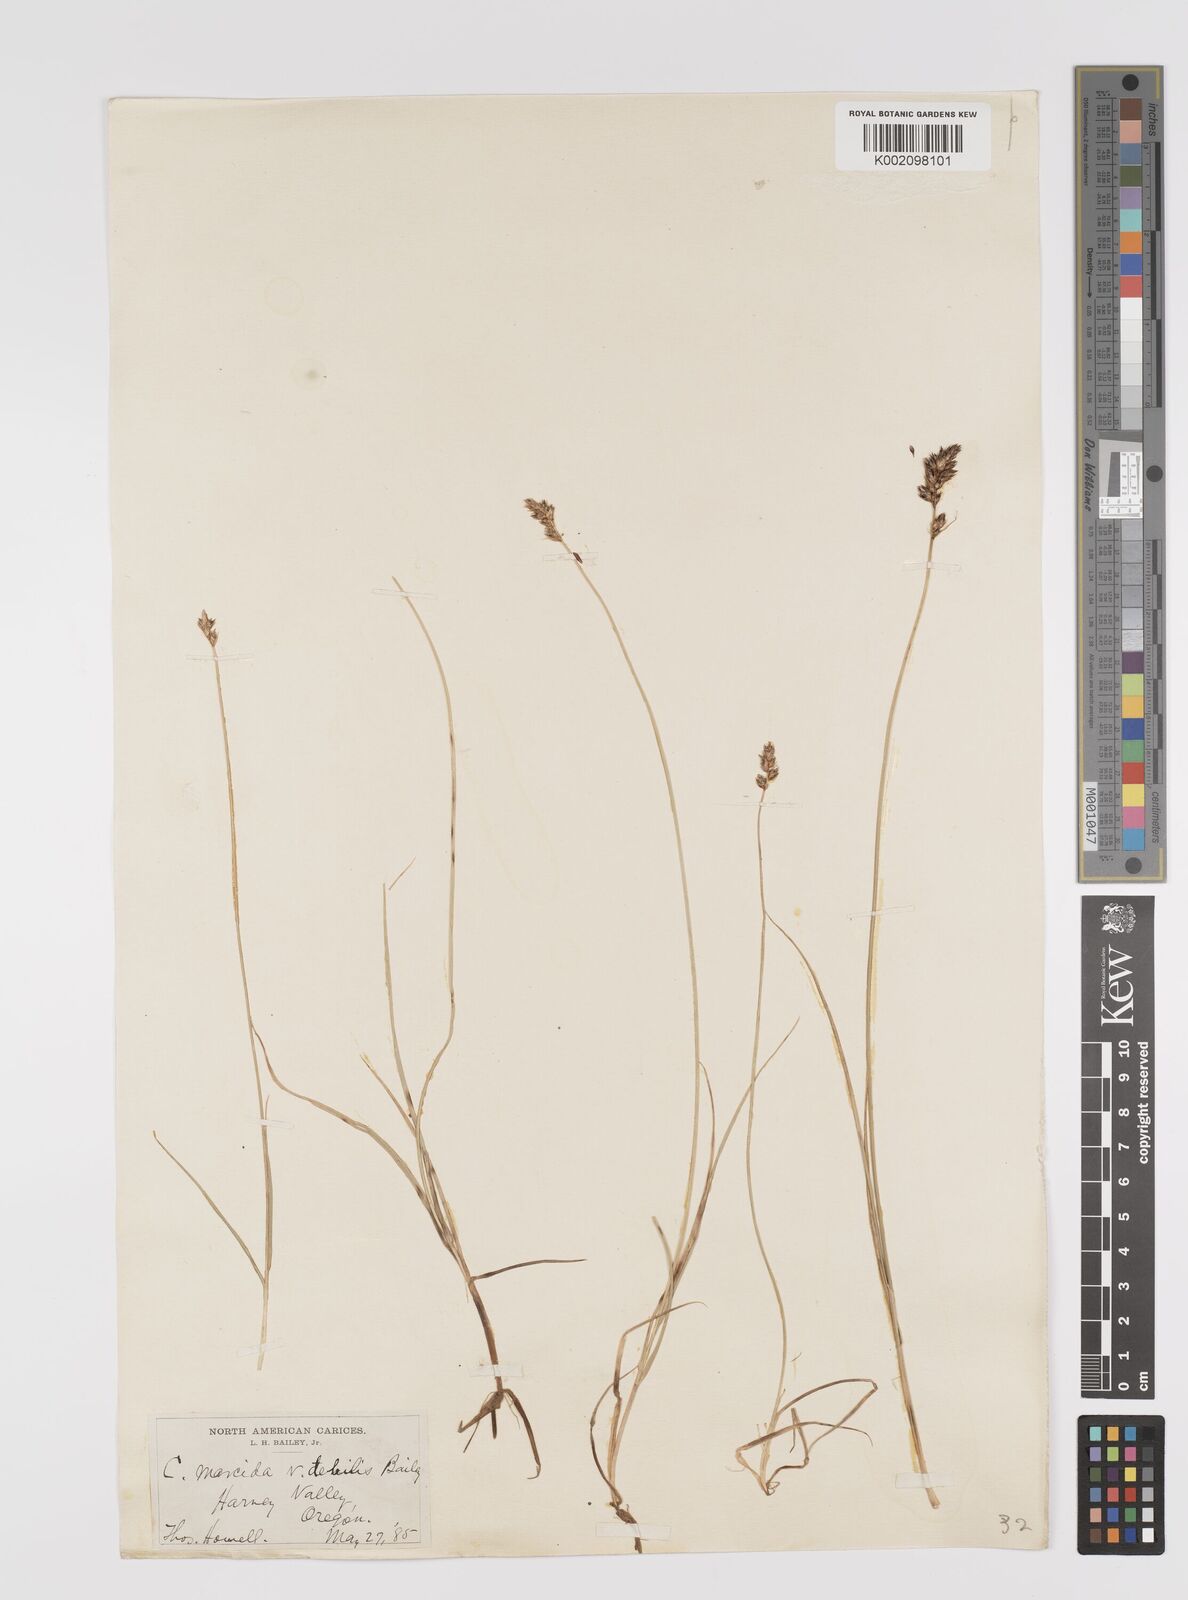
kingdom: Plantae
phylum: Tracheophyta
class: Liliopsida
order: Poales
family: Cyperaceae
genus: Carex
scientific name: Carex praegracilis
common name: Black creeper sedge
